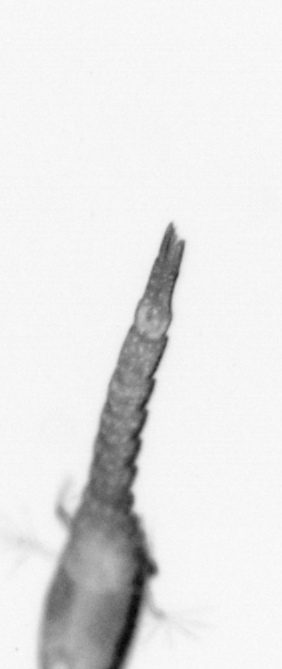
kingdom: Animalia
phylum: Arthropoda
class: Copepoda
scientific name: Copepoda
